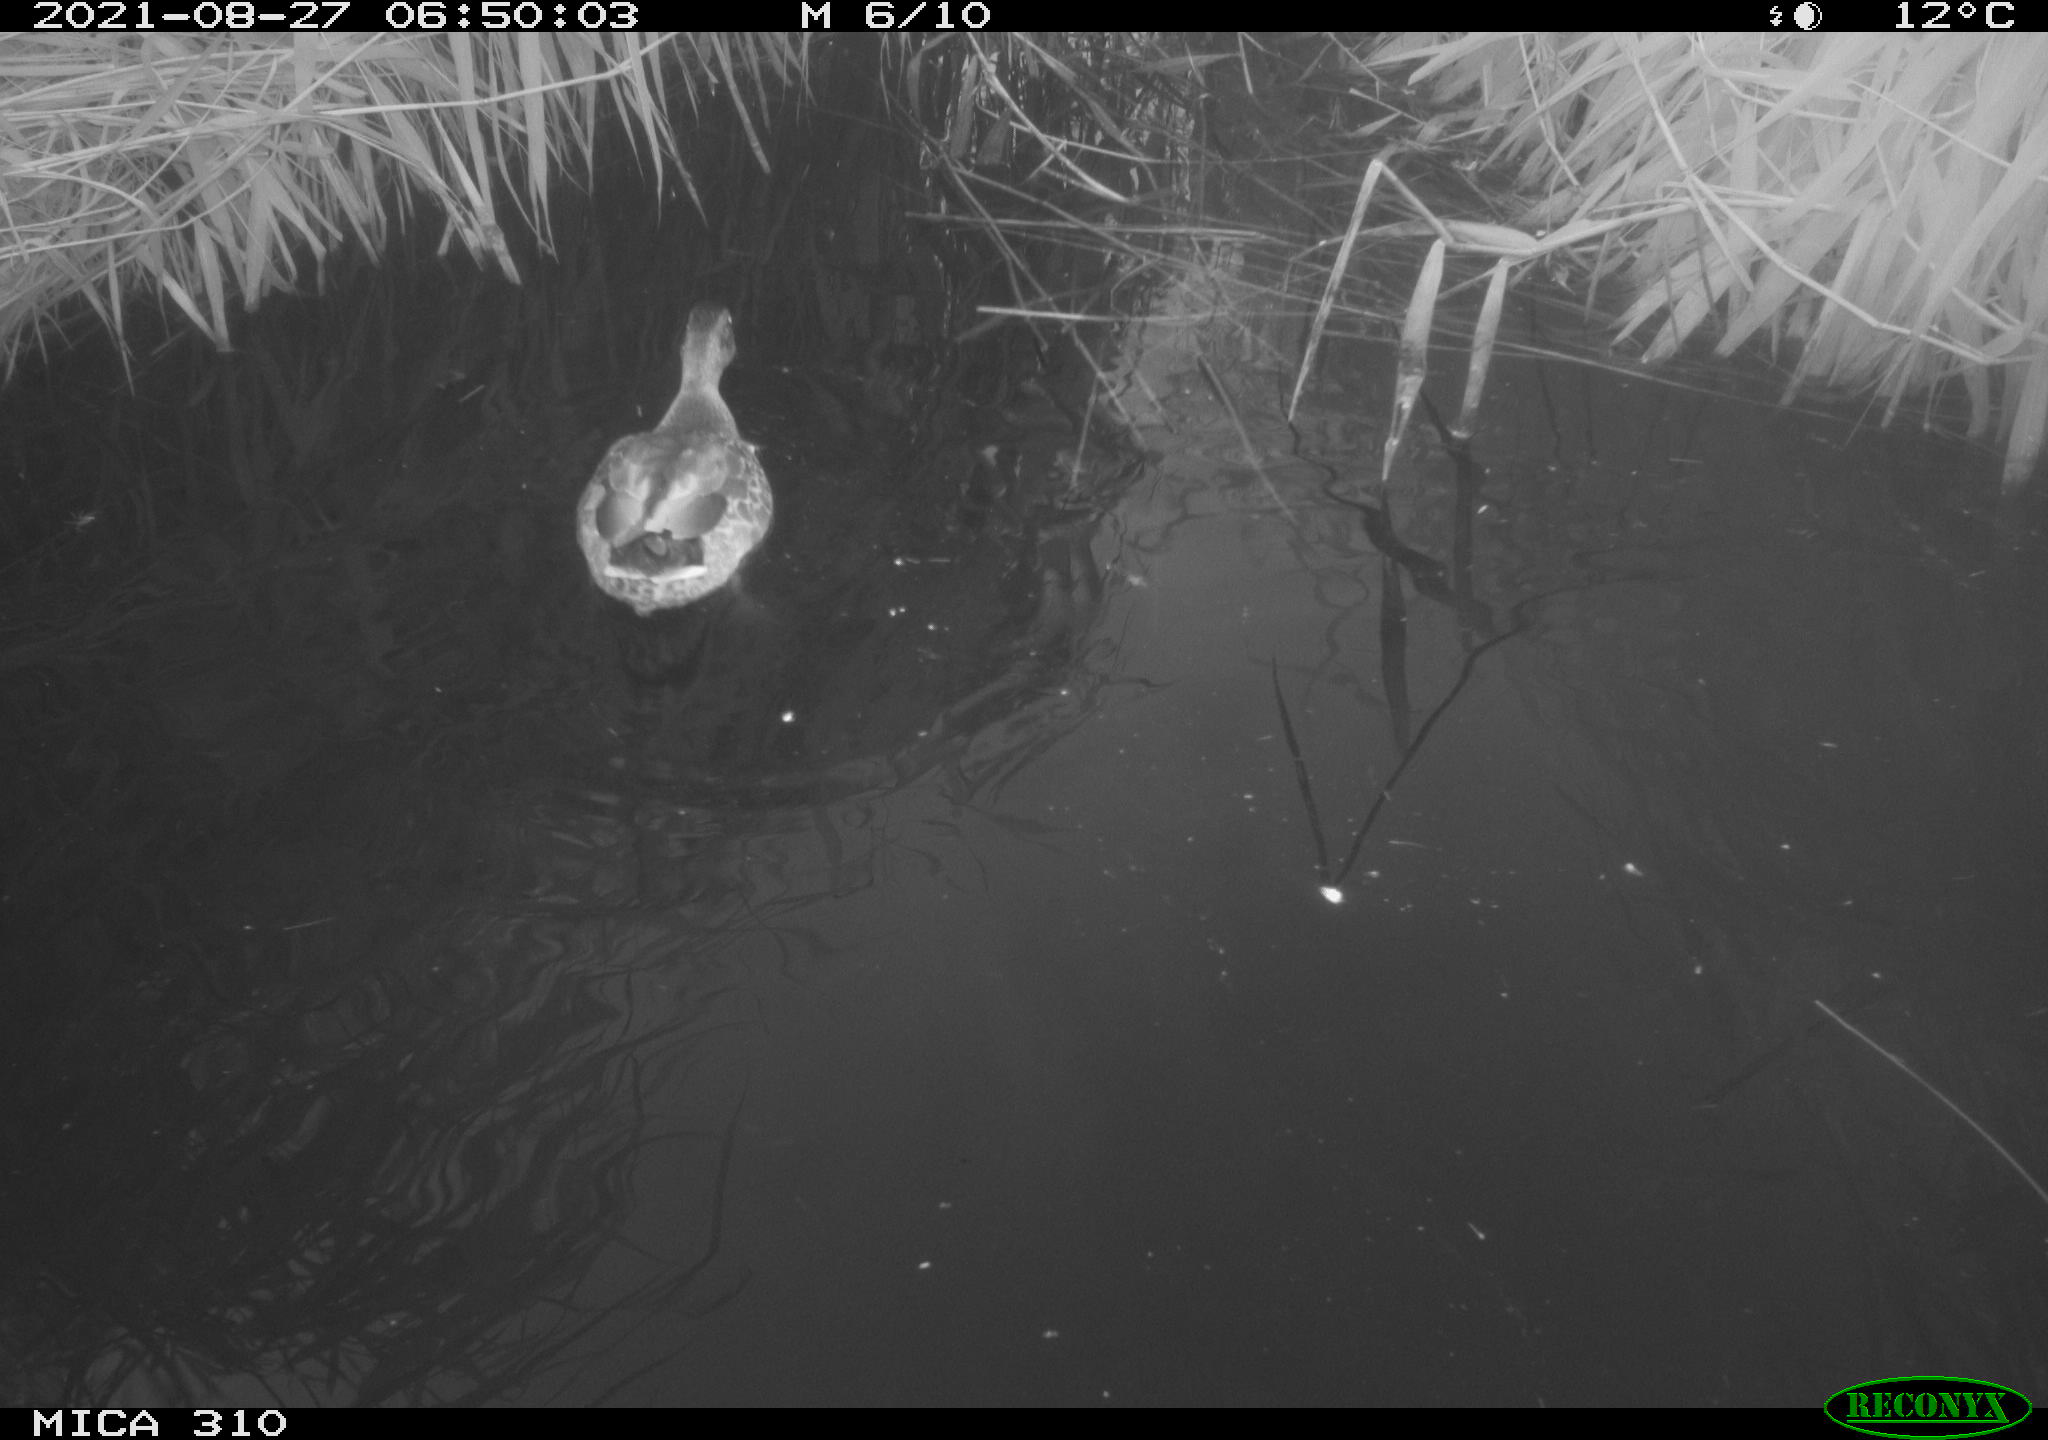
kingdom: Animalia
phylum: Chordata
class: Aves
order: Anseriformes
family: Anatidae
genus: Anas
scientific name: Anas platyrhynchos
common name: Mallard
